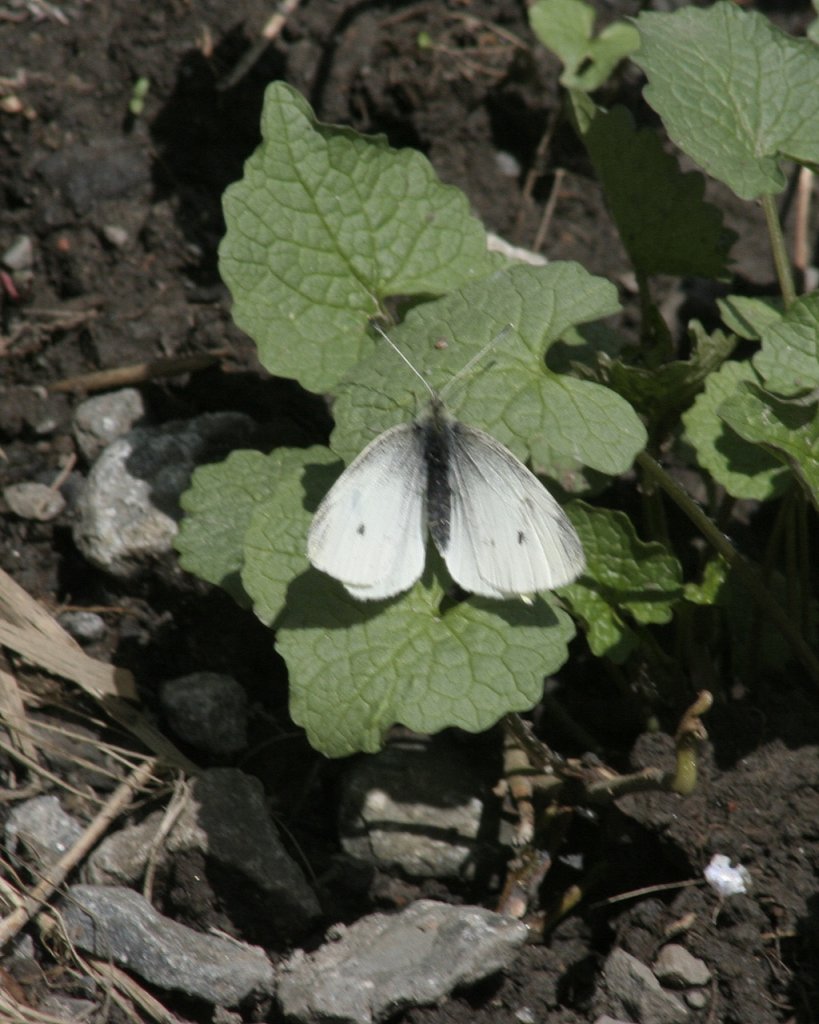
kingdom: Animalia
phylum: Arthropoda
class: Insecta
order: Lepidoptera
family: Pieridae
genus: Pieris
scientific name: Pieris rapae
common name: Cabbage White
